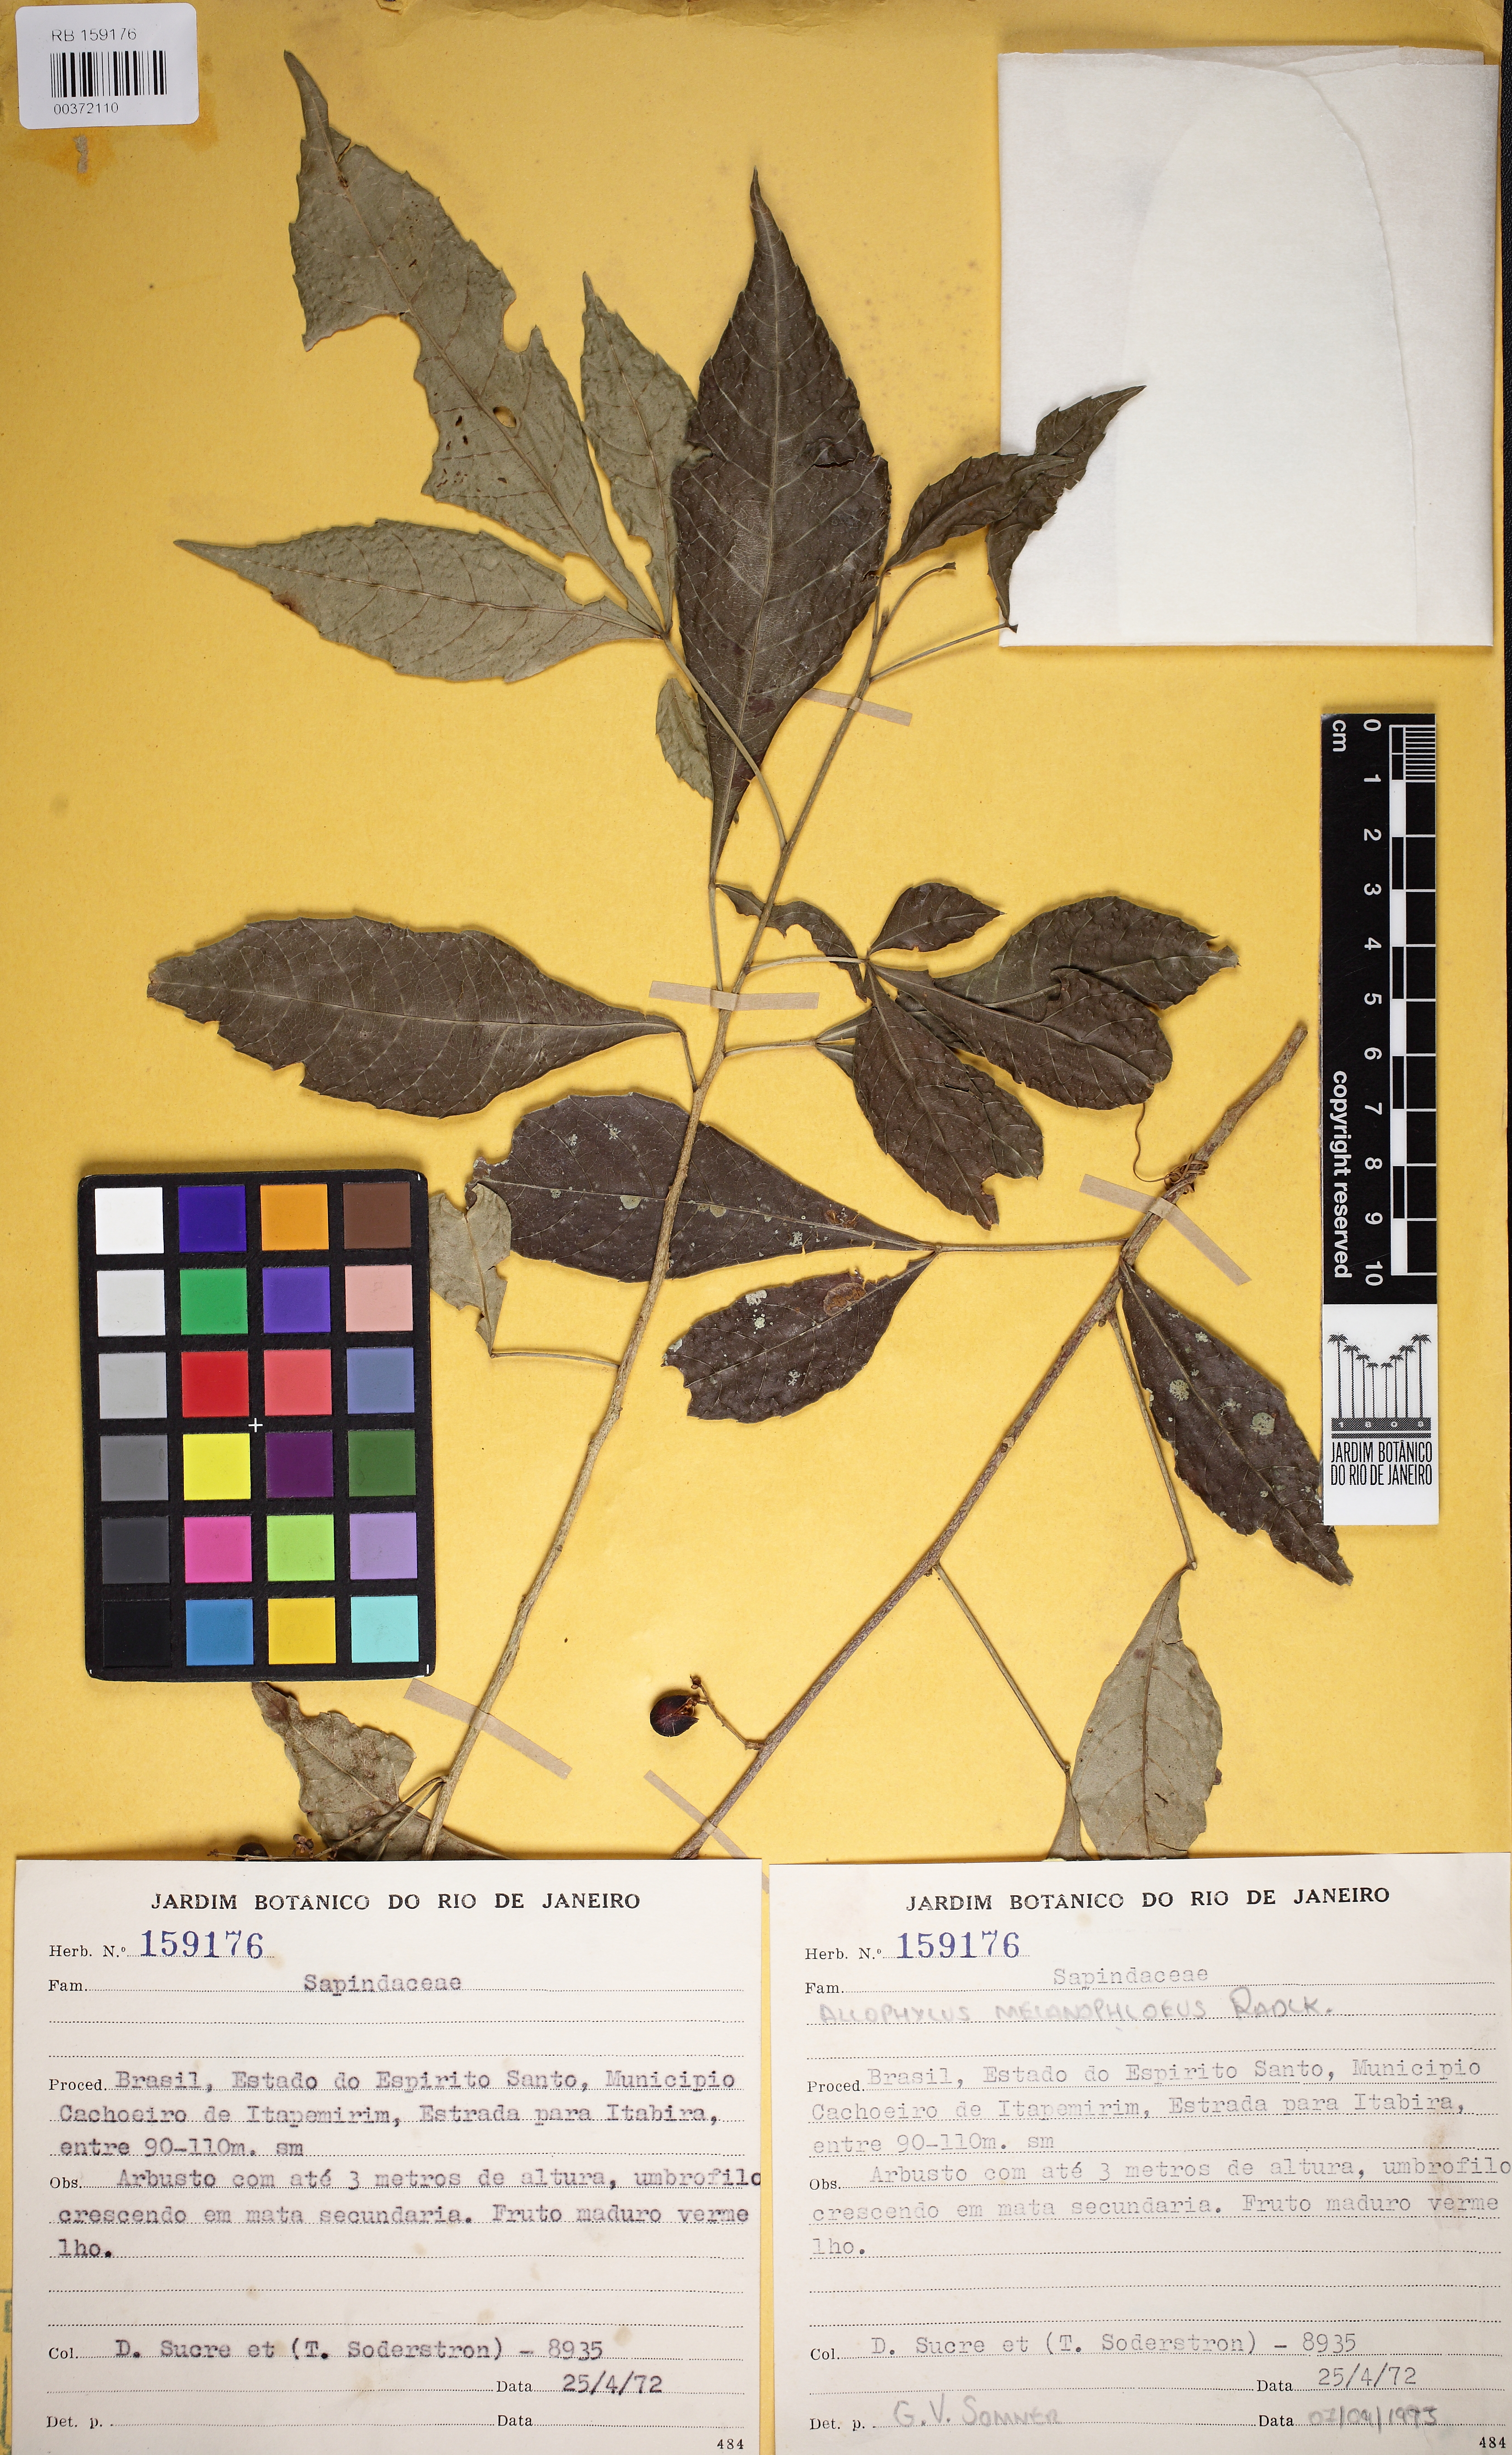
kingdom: Plantae
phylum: Tracheophyta
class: Magnoliopsida
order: Sapindales
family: Sapindaceae
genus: Allophylus
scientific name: Allophylus edulis
